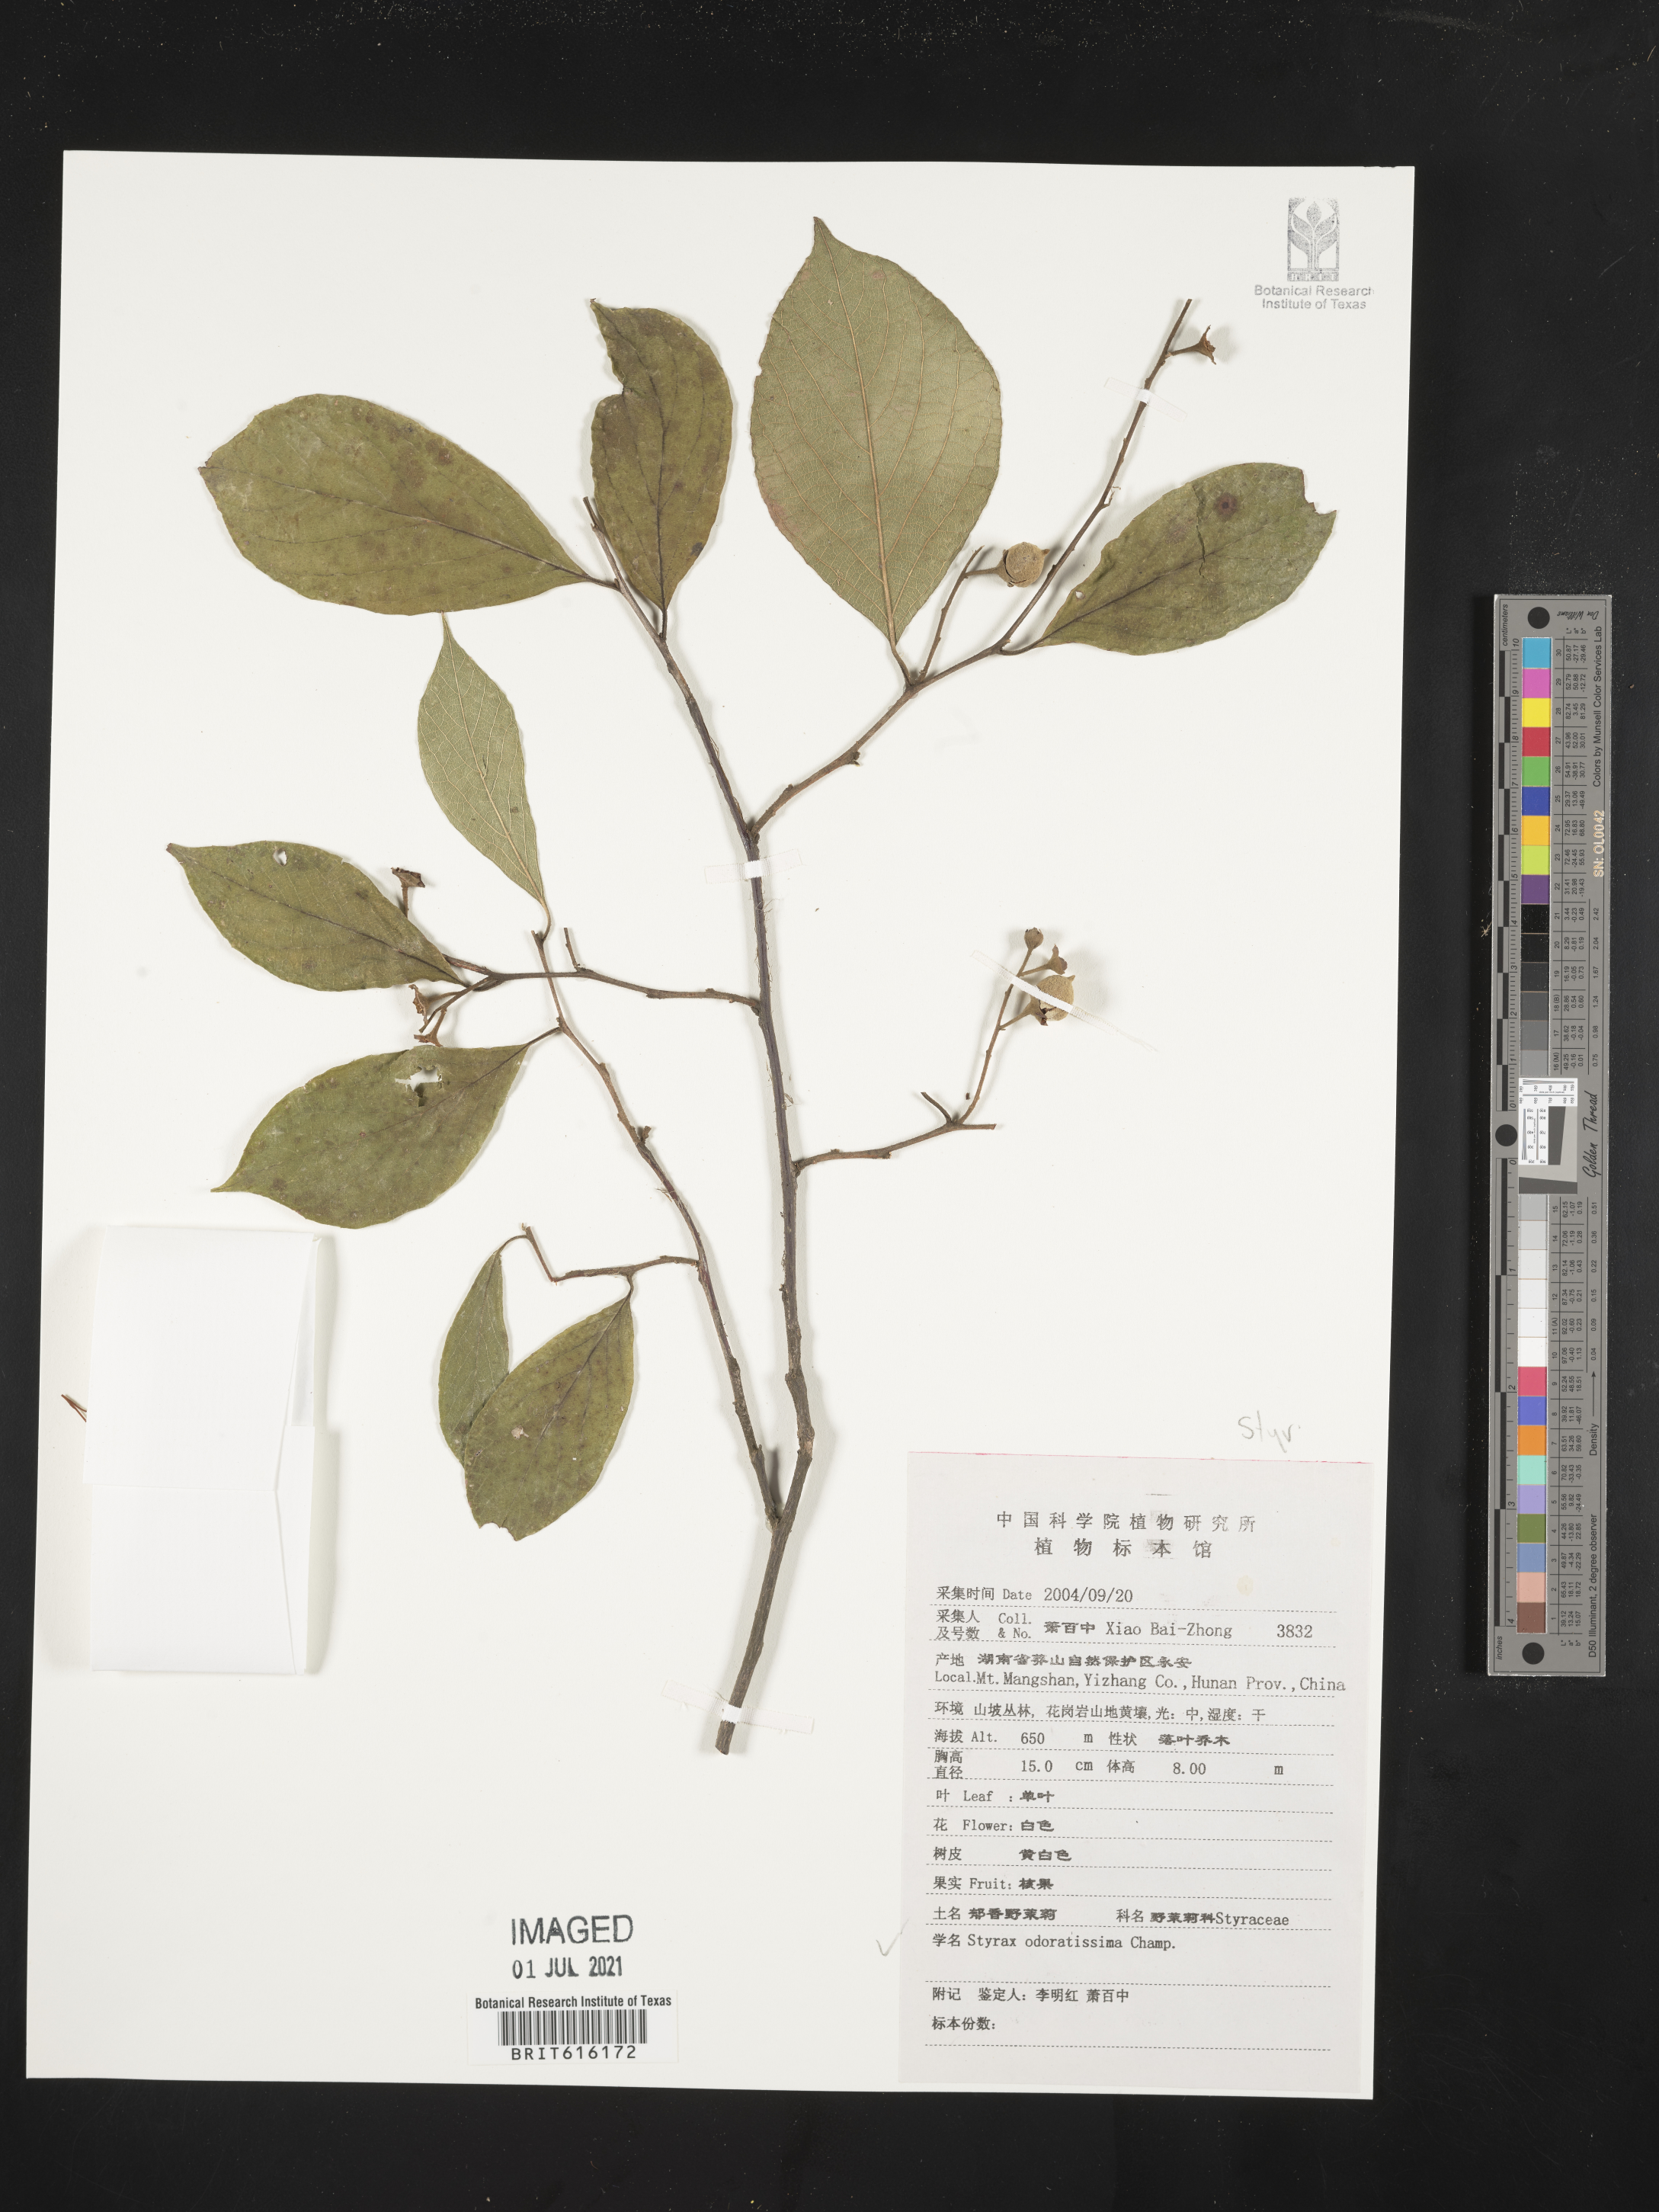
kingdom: Plantae
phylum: Tracheophyta
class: Magnoliopsida
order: Ericales
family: Styracaceae
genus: Styrax
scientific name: Styrax odoratissimus
